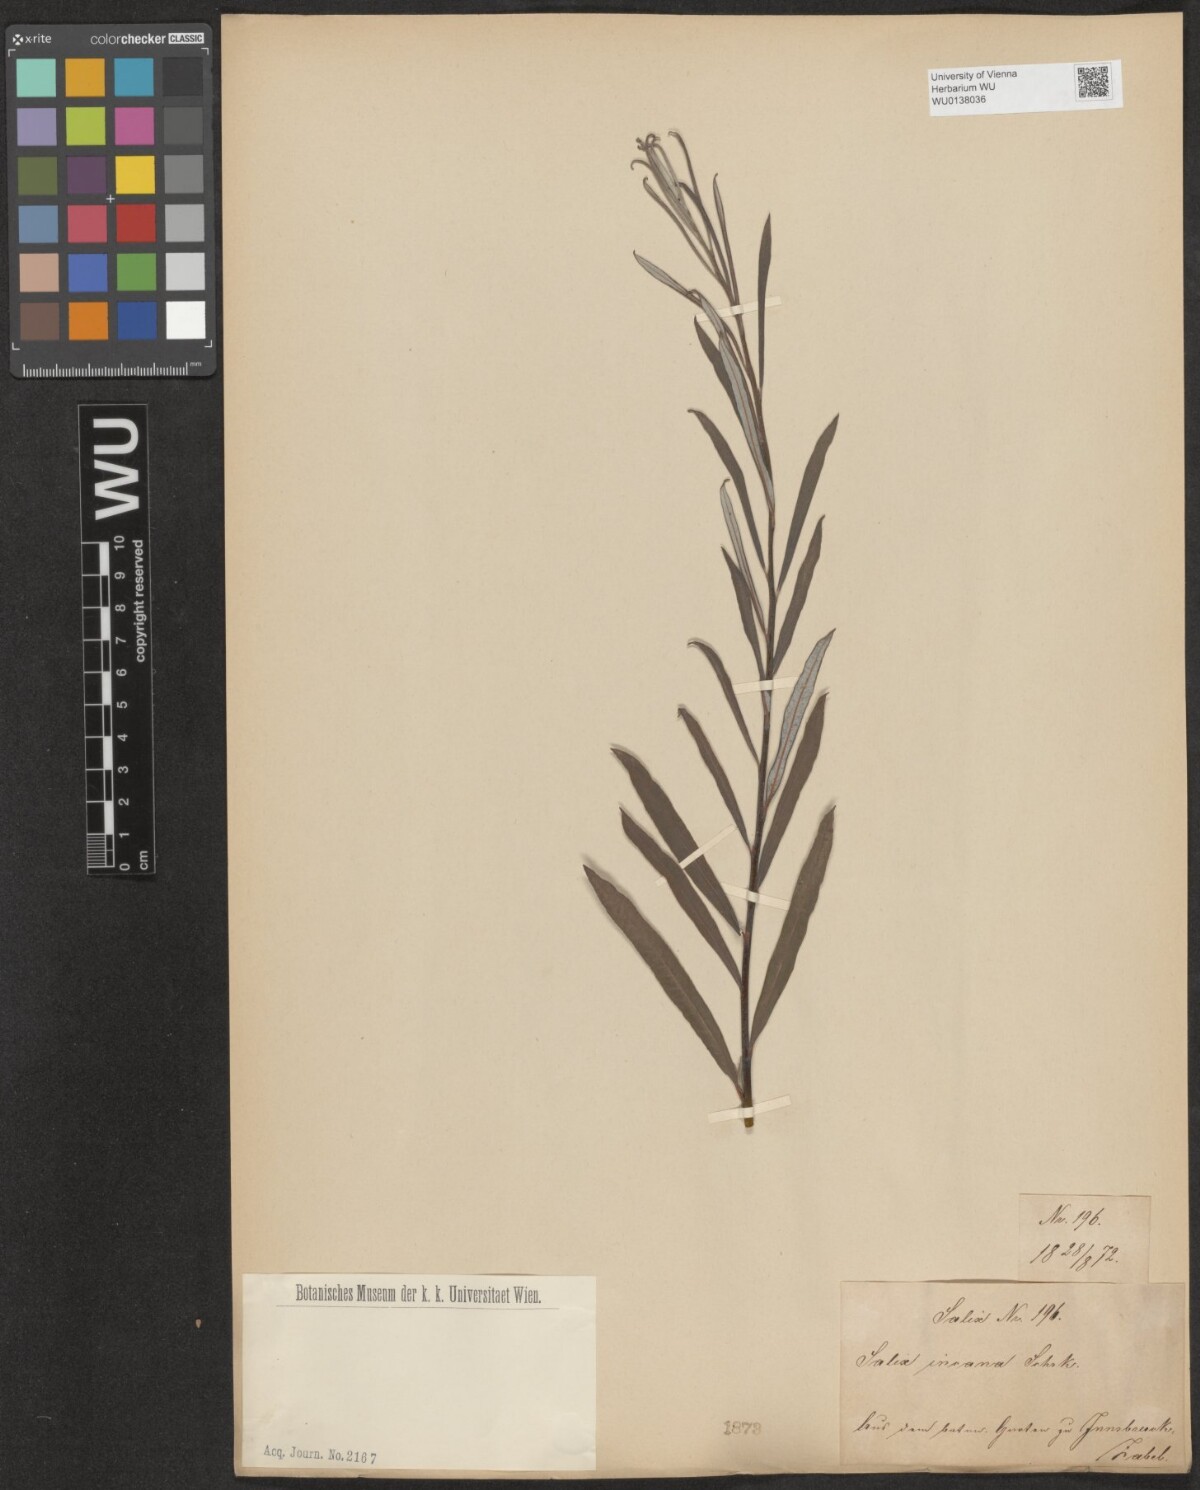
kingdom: Plantae
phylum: Tracheophyta
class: Magnoliopsida
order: Malpighiales
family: Salicaceae
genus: Salix
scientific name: Salix eleagnos
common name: Elaeagnus willow
